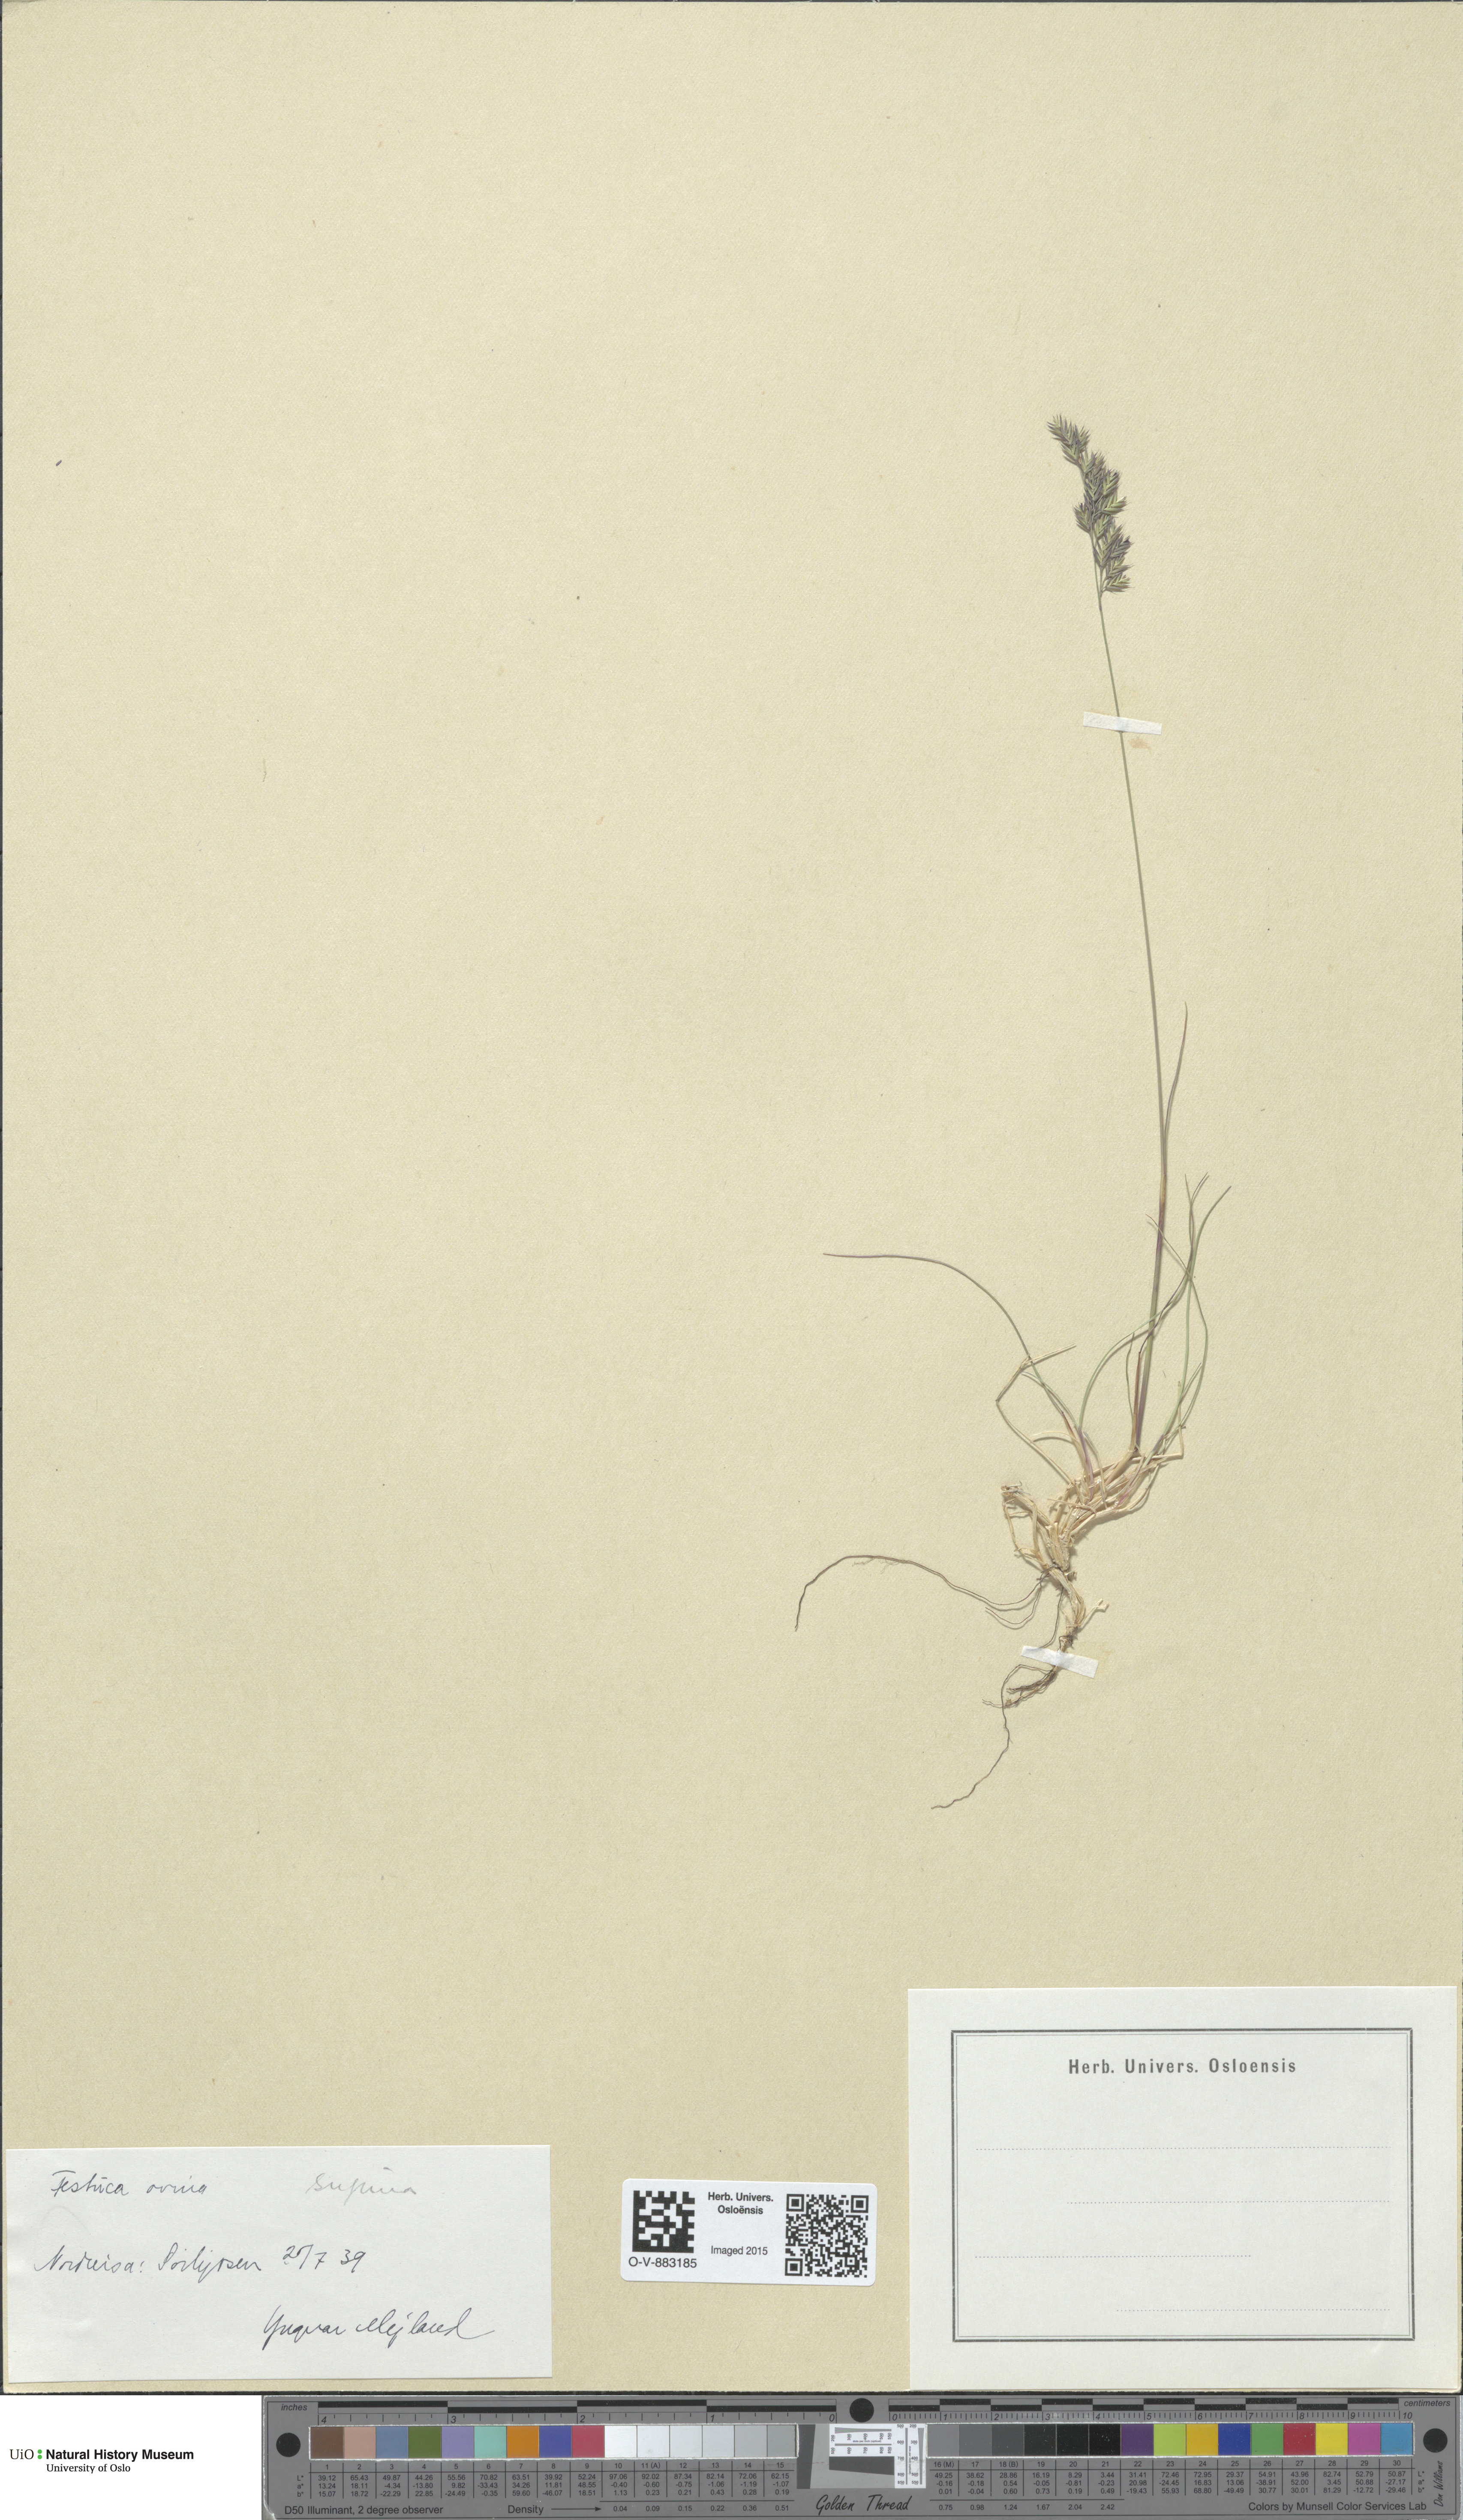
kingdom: Plantae
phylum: Tracheophyta
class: Liliopsida
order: Poales
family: Poaceae
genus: Festuca
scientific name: Festuca ovina
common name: Sheep fescue
